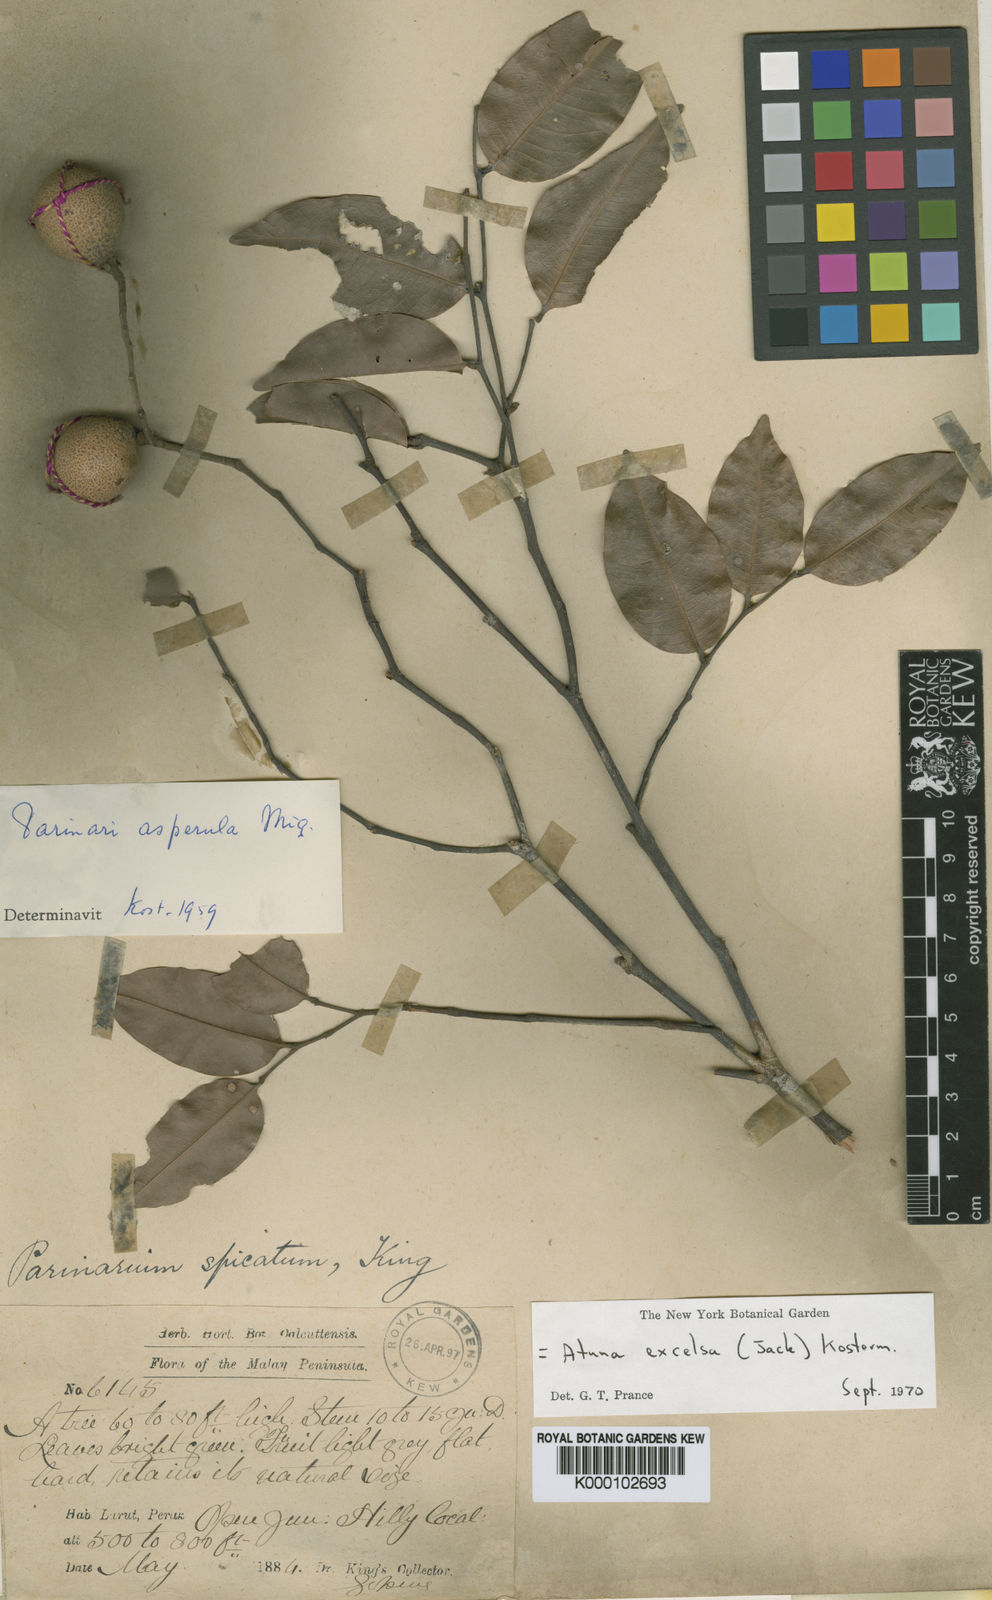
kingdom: Plantae
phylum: Tracheophyta
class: Magnoliopsida
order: Malpighiales
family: Chrysobalanaceae
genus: Atuna
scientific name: Atuna excelsa
